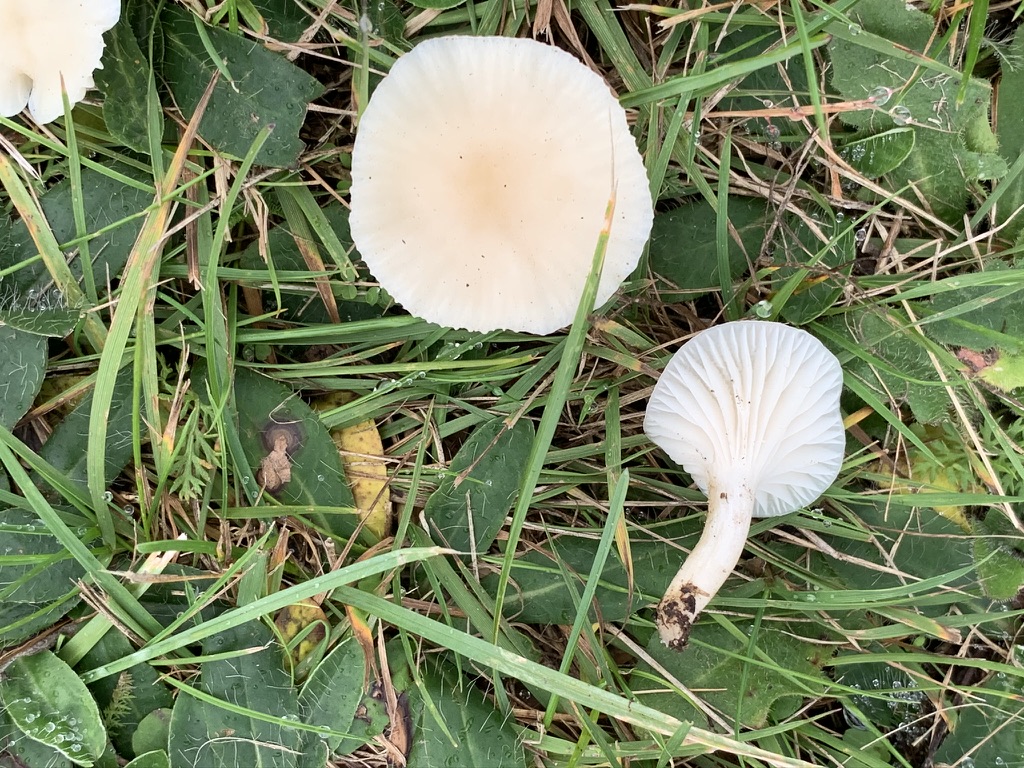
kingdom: Fungi
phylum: Basidiomycota
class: Agaricomycetes
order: Agaricales
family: Hygrophoraceae
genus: Cuphophyllus
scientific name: Cuphophyllus virgineus
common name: snehvid vokshat
